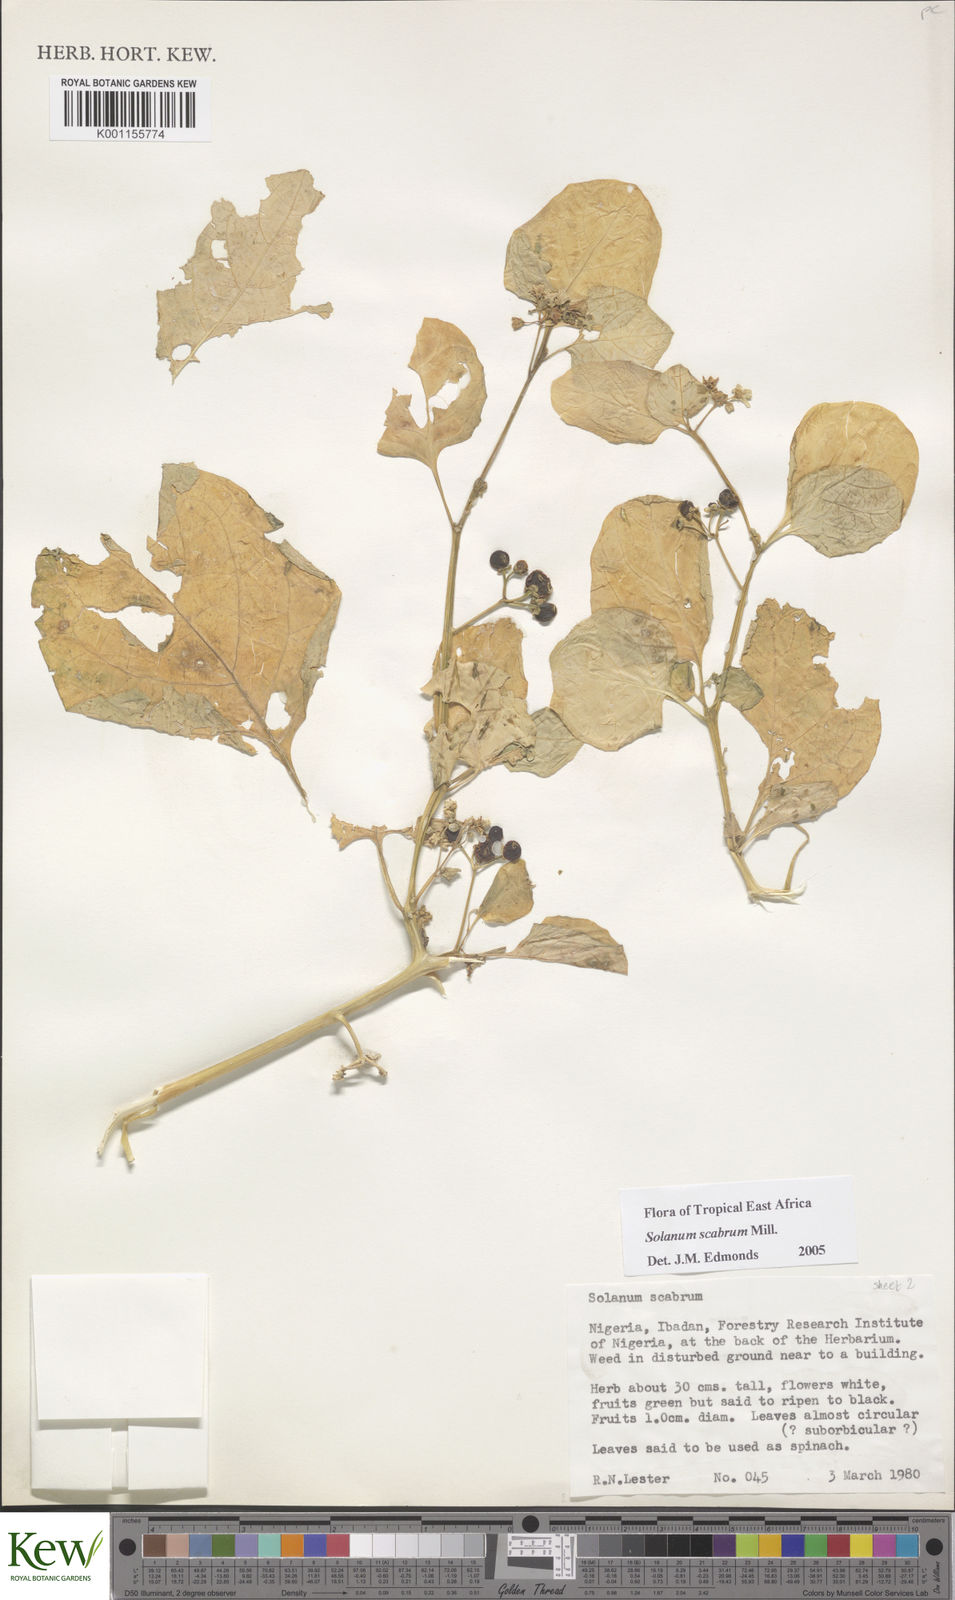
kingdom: Plantae
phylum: Tracheophyta
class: Magnoliopsida
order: Solanales
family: Solanaceae
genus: Solanum
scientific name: Solanum scabrum
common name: Garden-huckleberry
